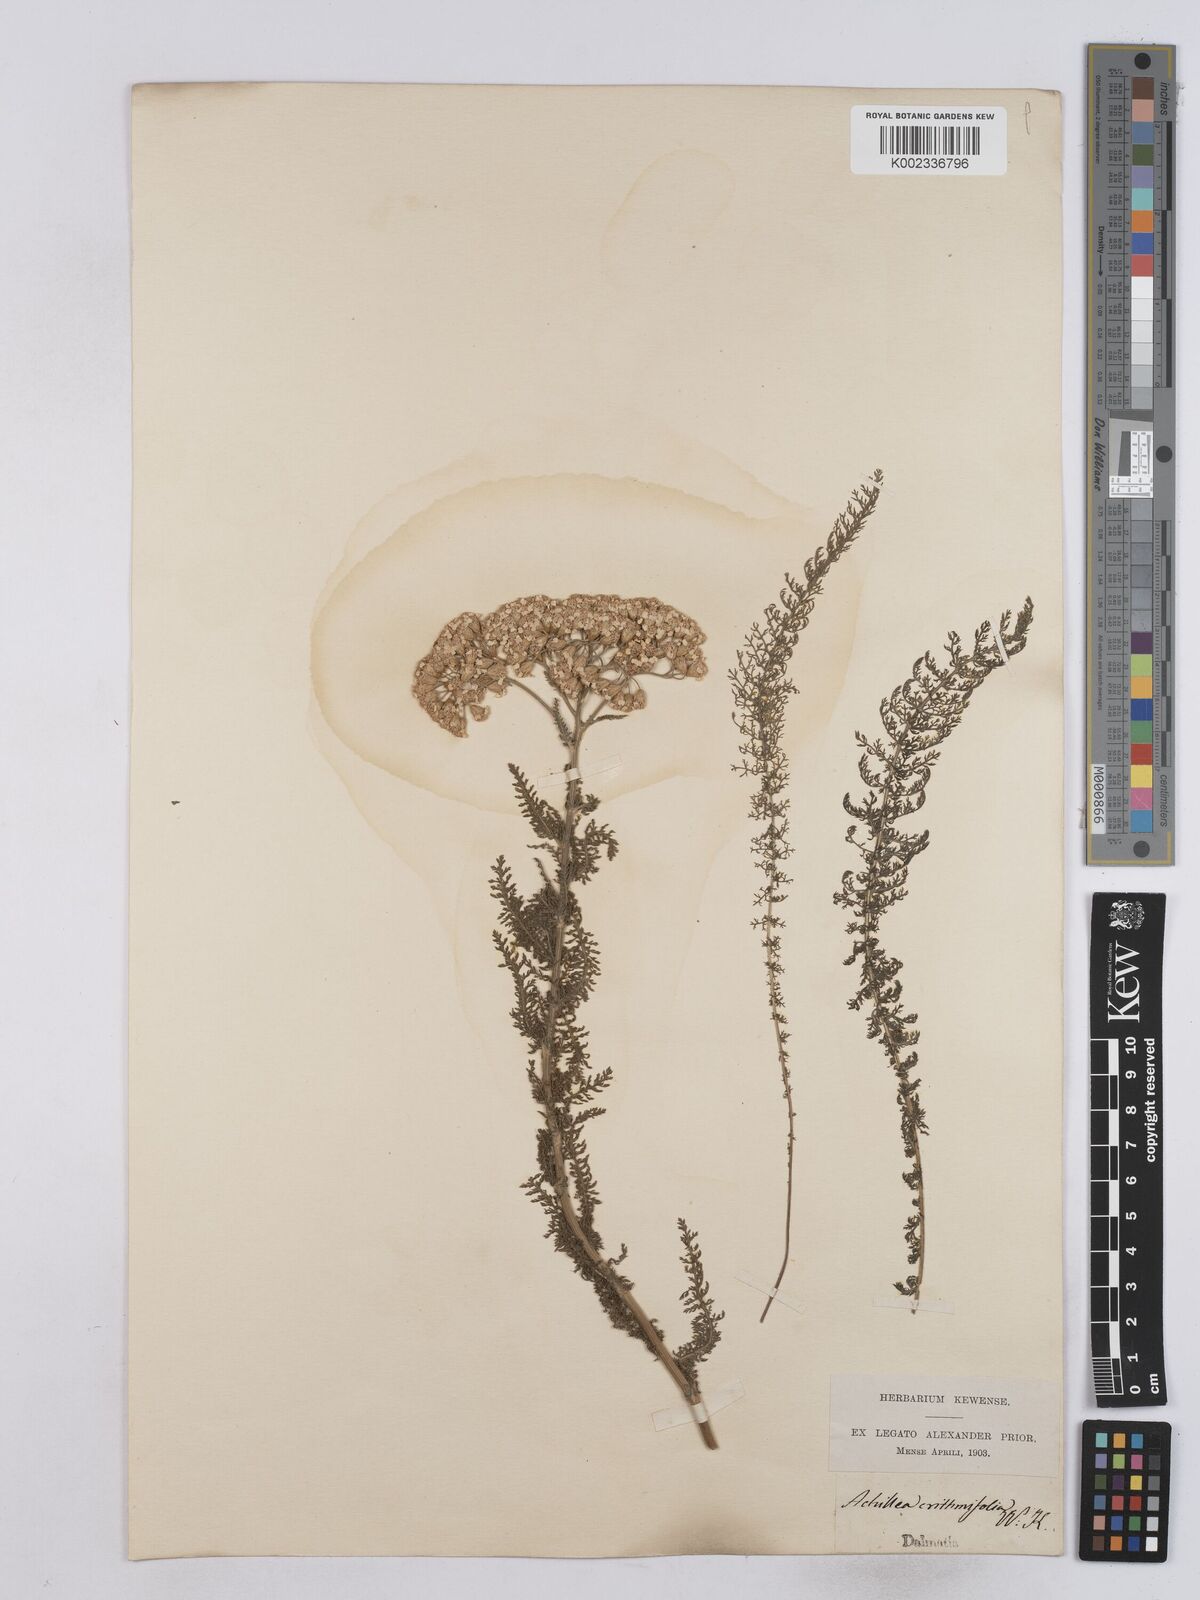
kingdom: Plantae
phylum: Tracheophyta
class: Magnoliopsida
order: Asterales
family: Asteraceae
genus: Achillea
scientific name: Achillea crithmifolia
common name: Yarrow
